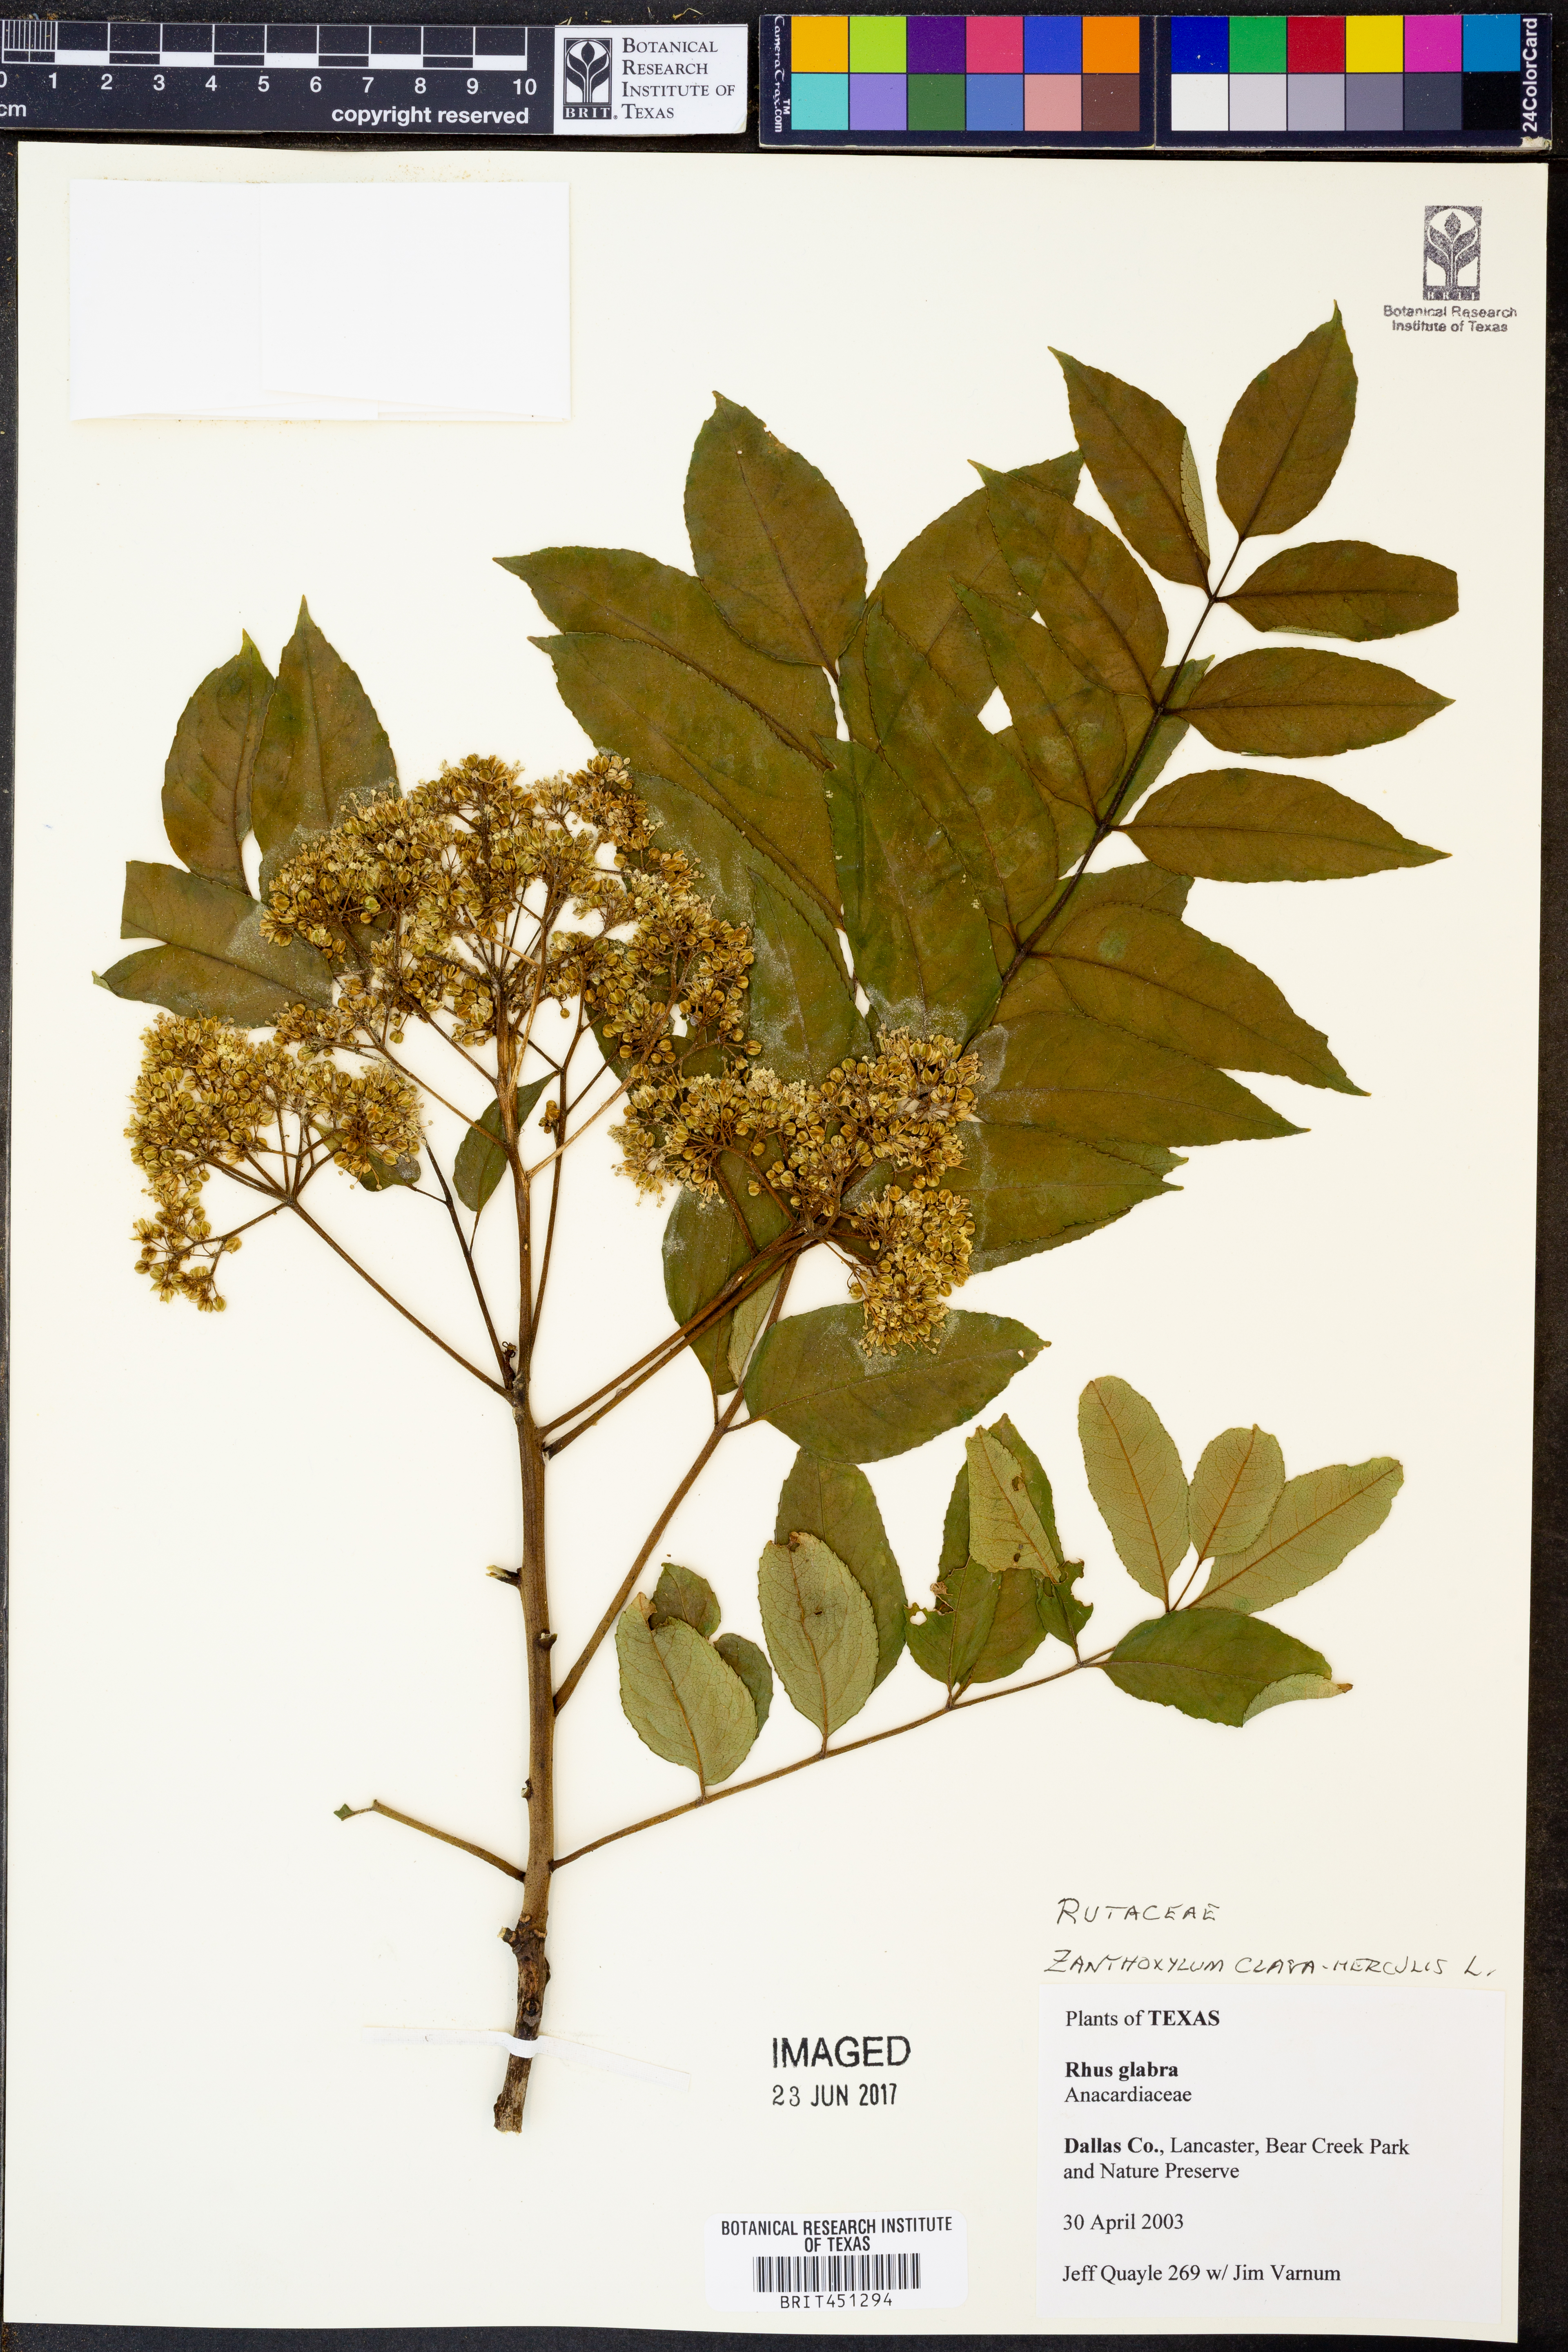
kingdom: Plantae
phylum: Tracheophyta
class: Magnoliopsida
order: Sapindales
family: Anacardiaceae
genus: Rhus
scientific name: Rhus glabra
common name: Scarlet sumac
